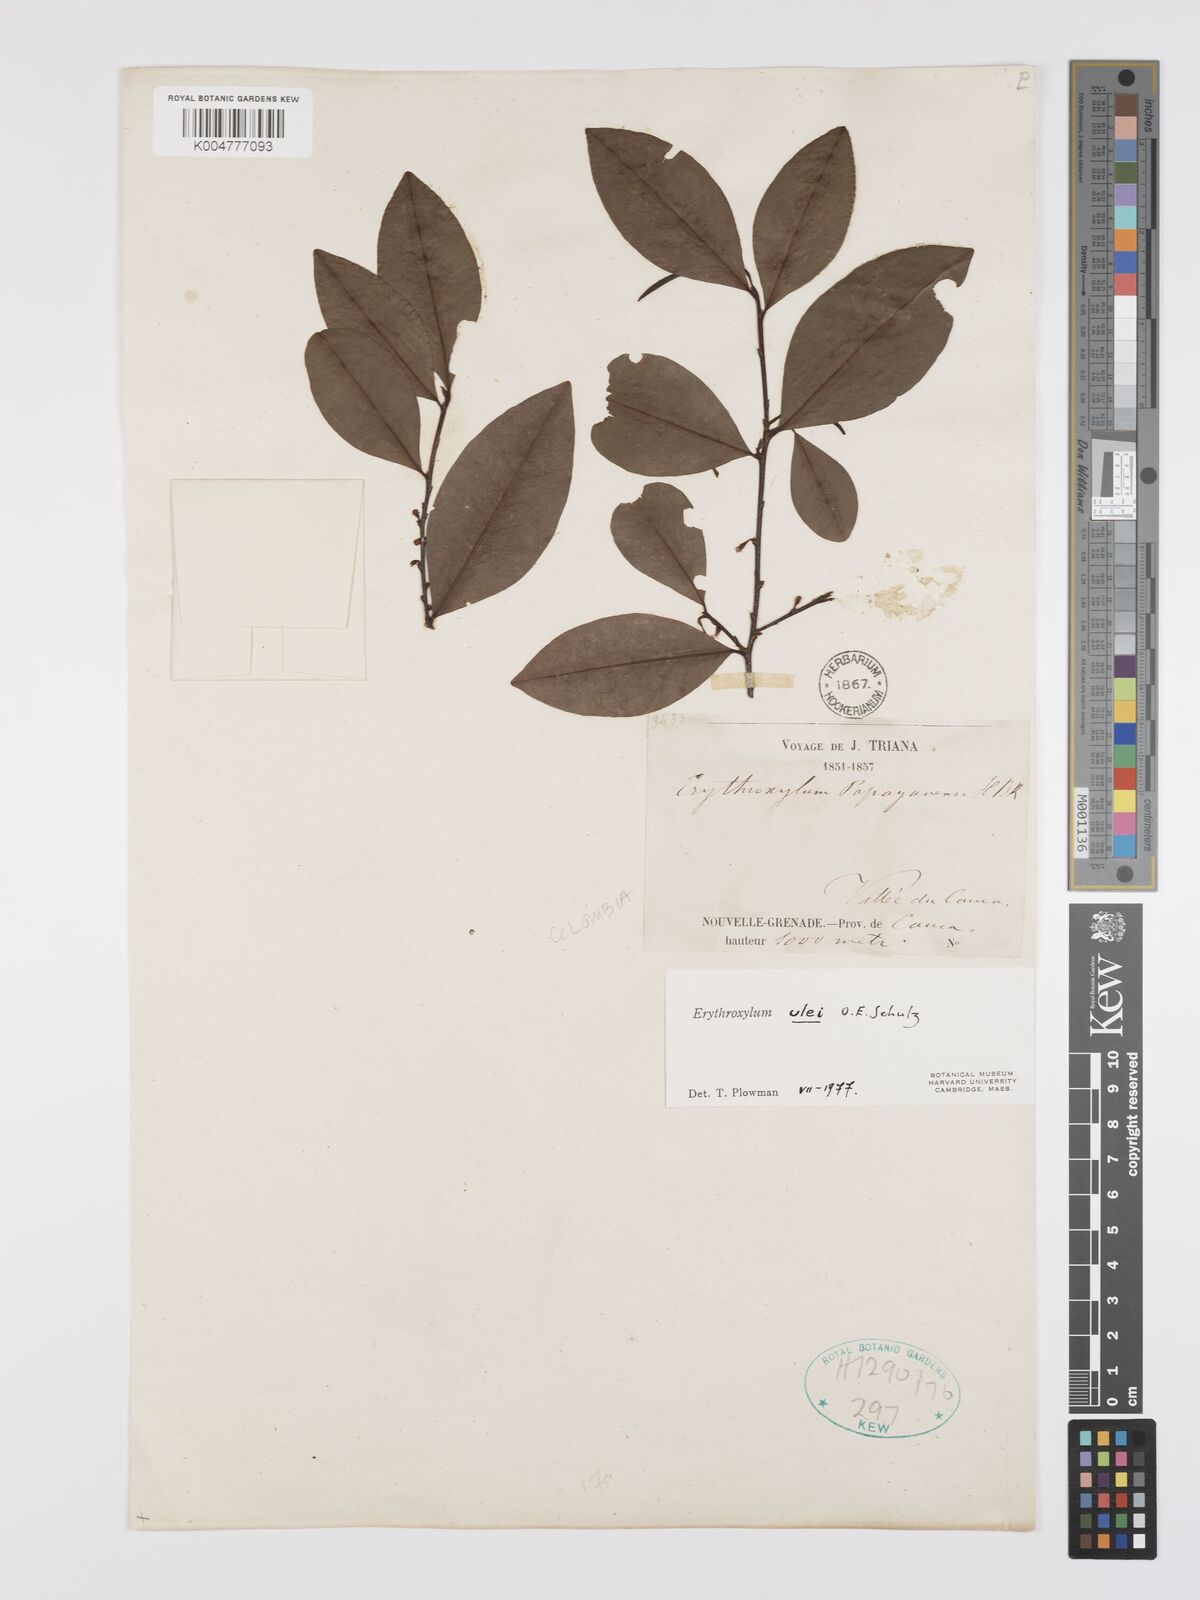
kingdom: Plantae
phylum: Tracheophyta
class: Magnoliopsida
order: Malpighiales
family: Erythroxylaceae
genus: Erythroxylum
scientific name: Erythroxylum ulei
